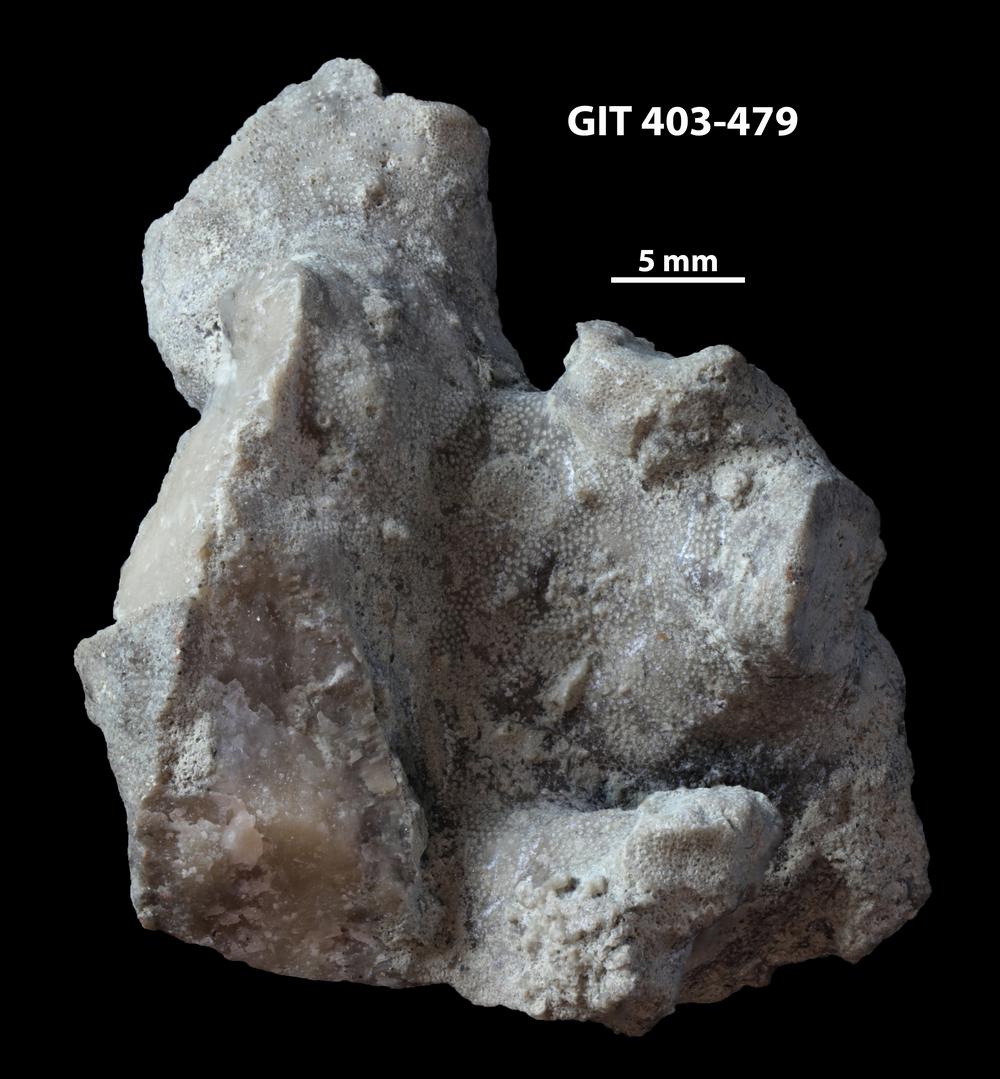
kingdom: Animalia
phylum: Bryozoa
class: Stenolaemata
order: Cystoporida
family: Fistuliporidae
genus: Fistulipora
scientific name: Fistulipora przhidolensis
